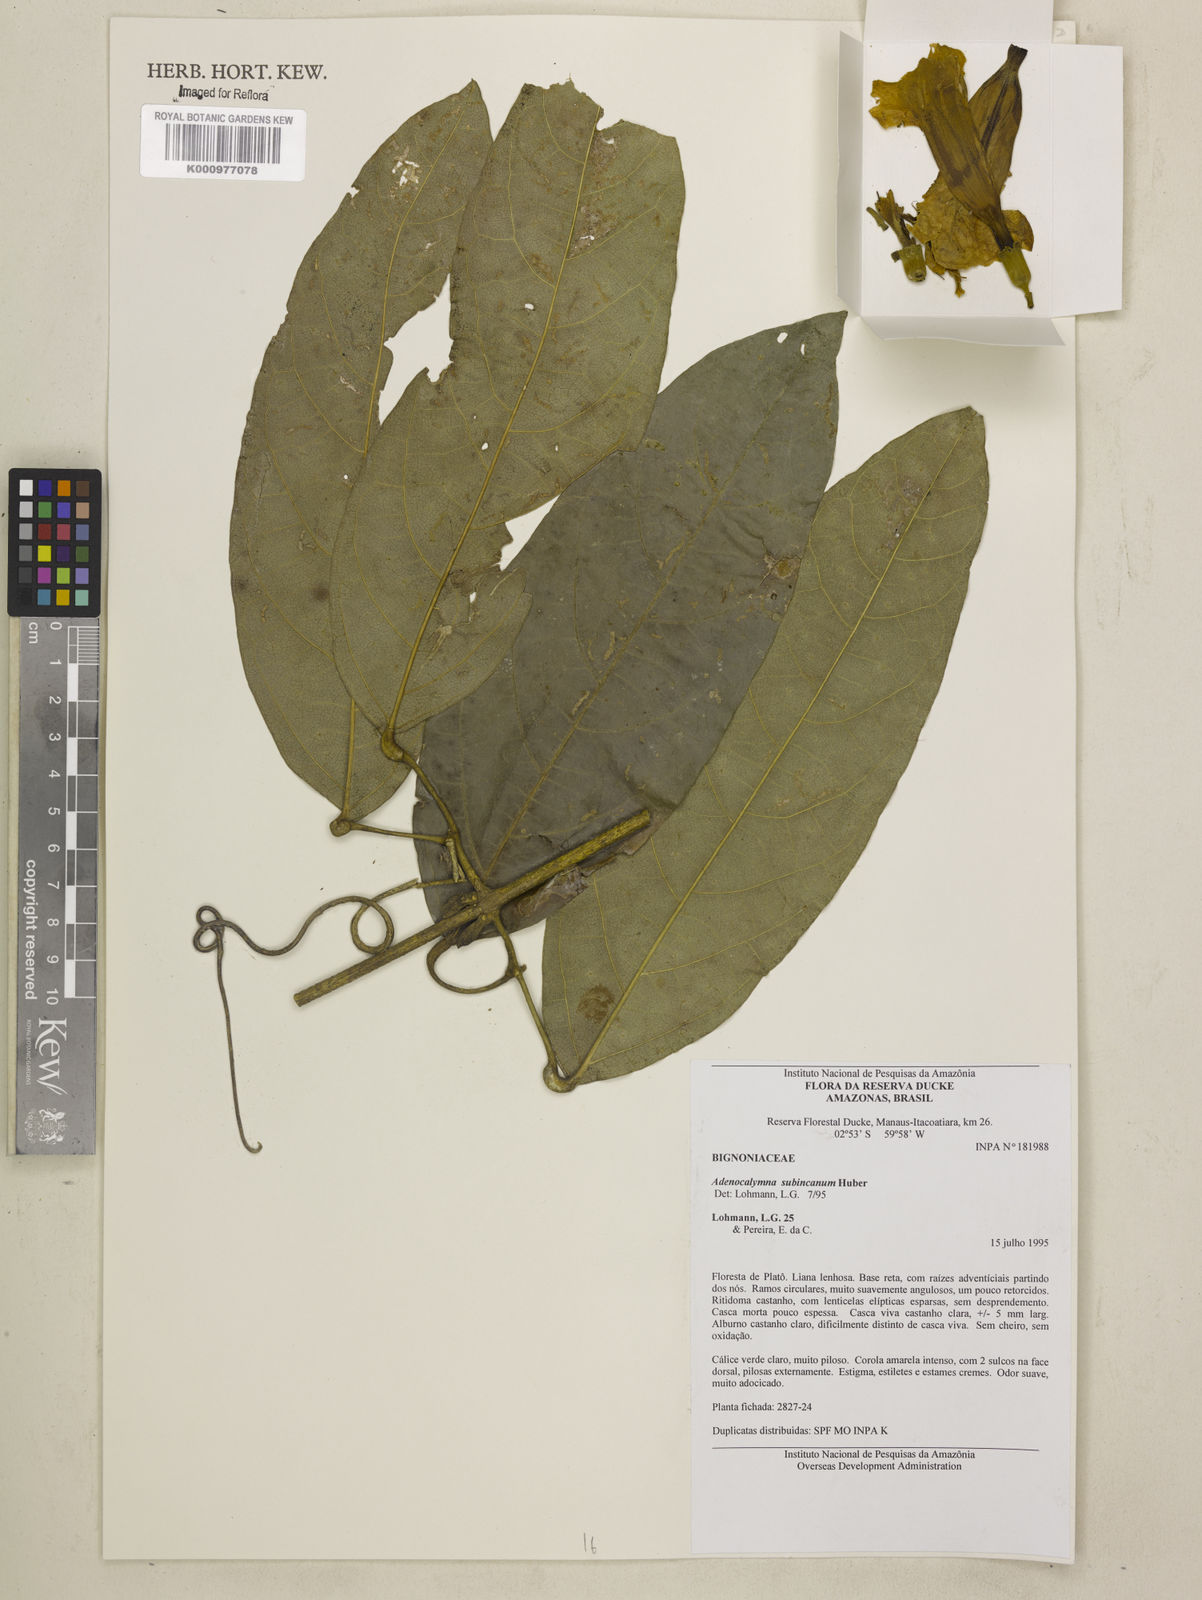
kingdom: Plantae
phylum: Tracheophyta
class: Magnoliopsida
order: Lamiales
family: Bignoniaceae
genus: Adenocalymma
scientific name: Adenocalymma subincanum
